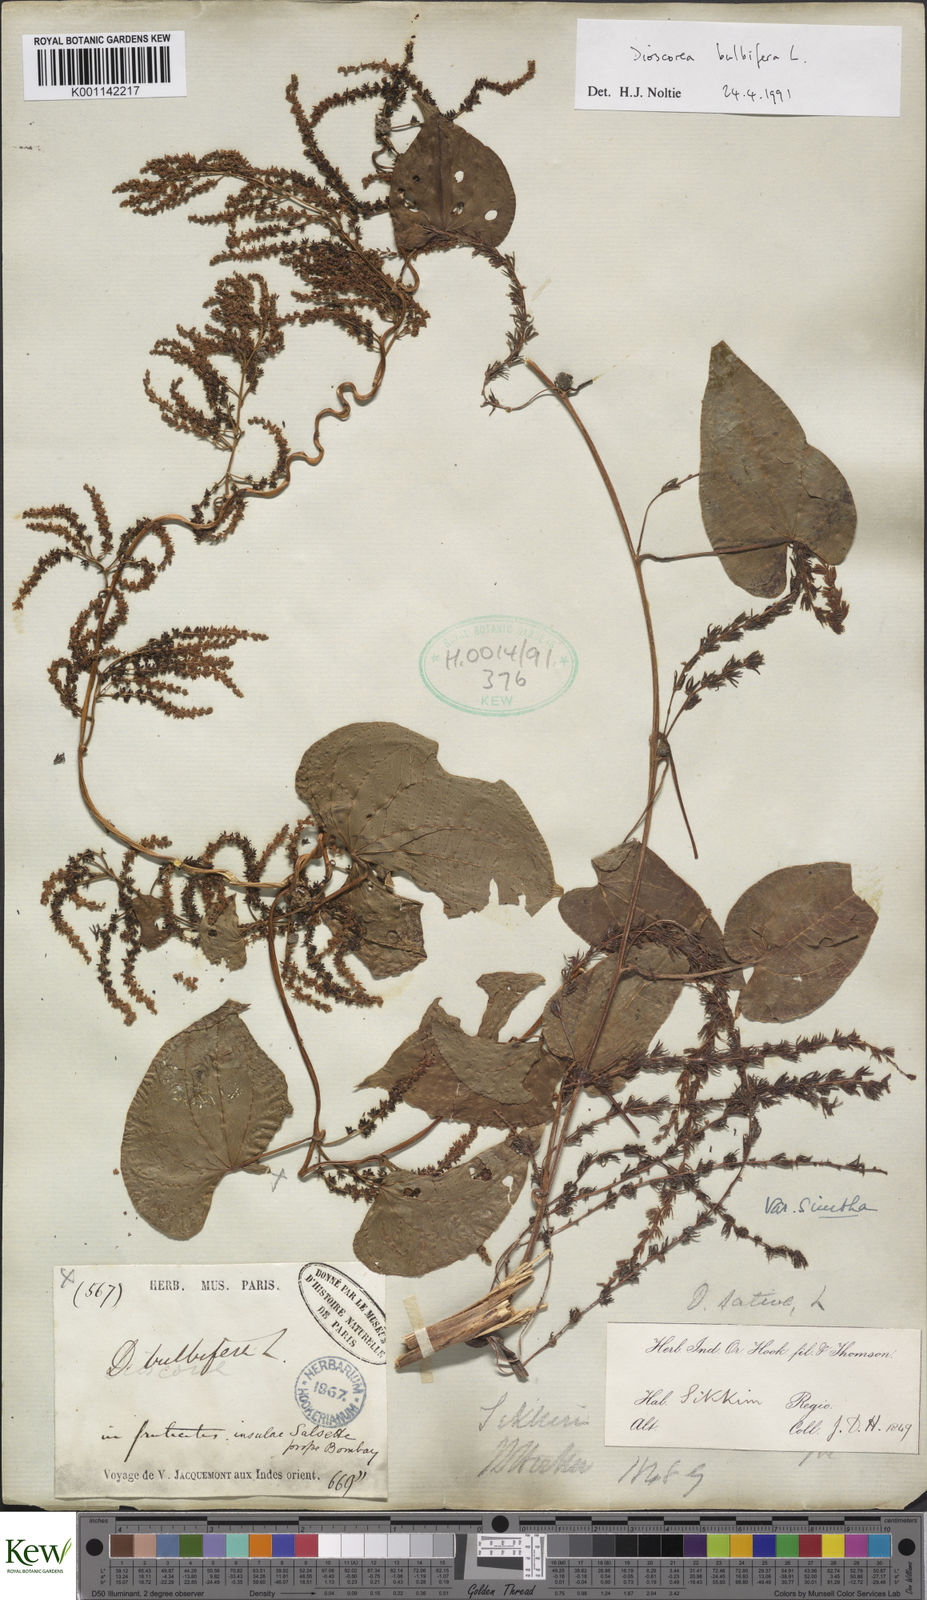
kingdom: Plantae
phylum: Tracheophyta
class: Liliopsida
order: Dioscoreales
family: Dioscoreaceae
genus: Dioscorea
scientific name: Dioscorea bulbifera
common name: Air yam
